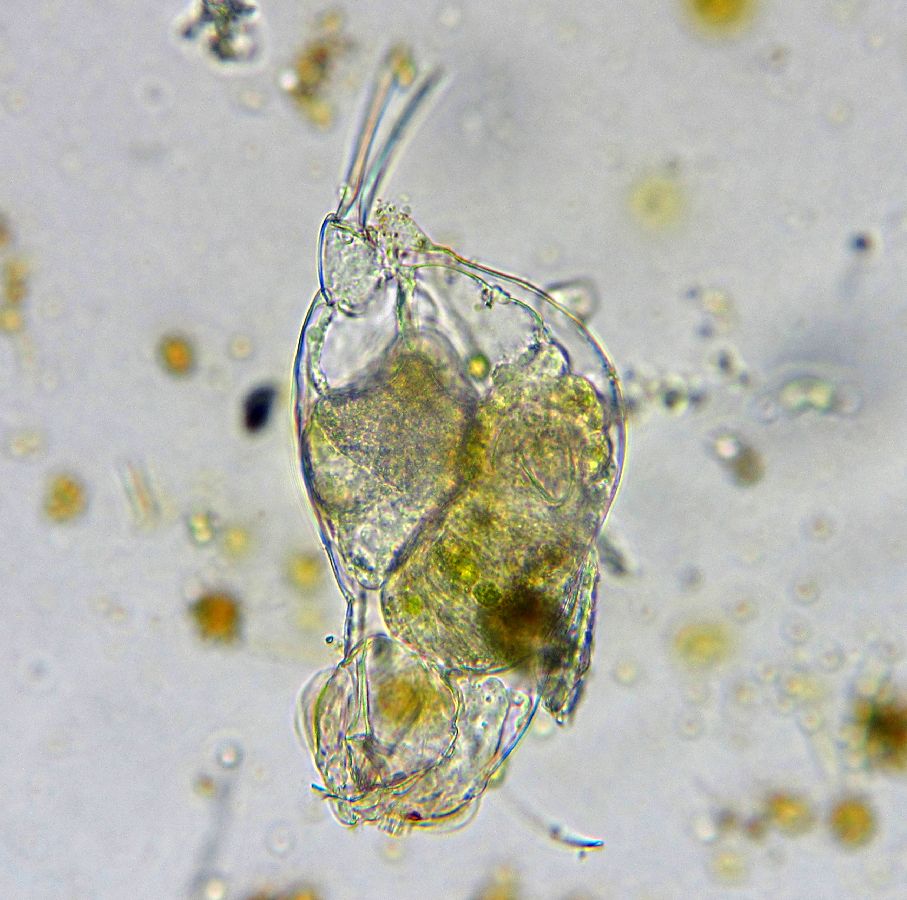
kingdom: Animalia
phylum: Rotifera
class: Eurotatoria
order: Ploima
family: Notommatidae
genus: Cephalodella
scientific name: Cephalodella ventripes
